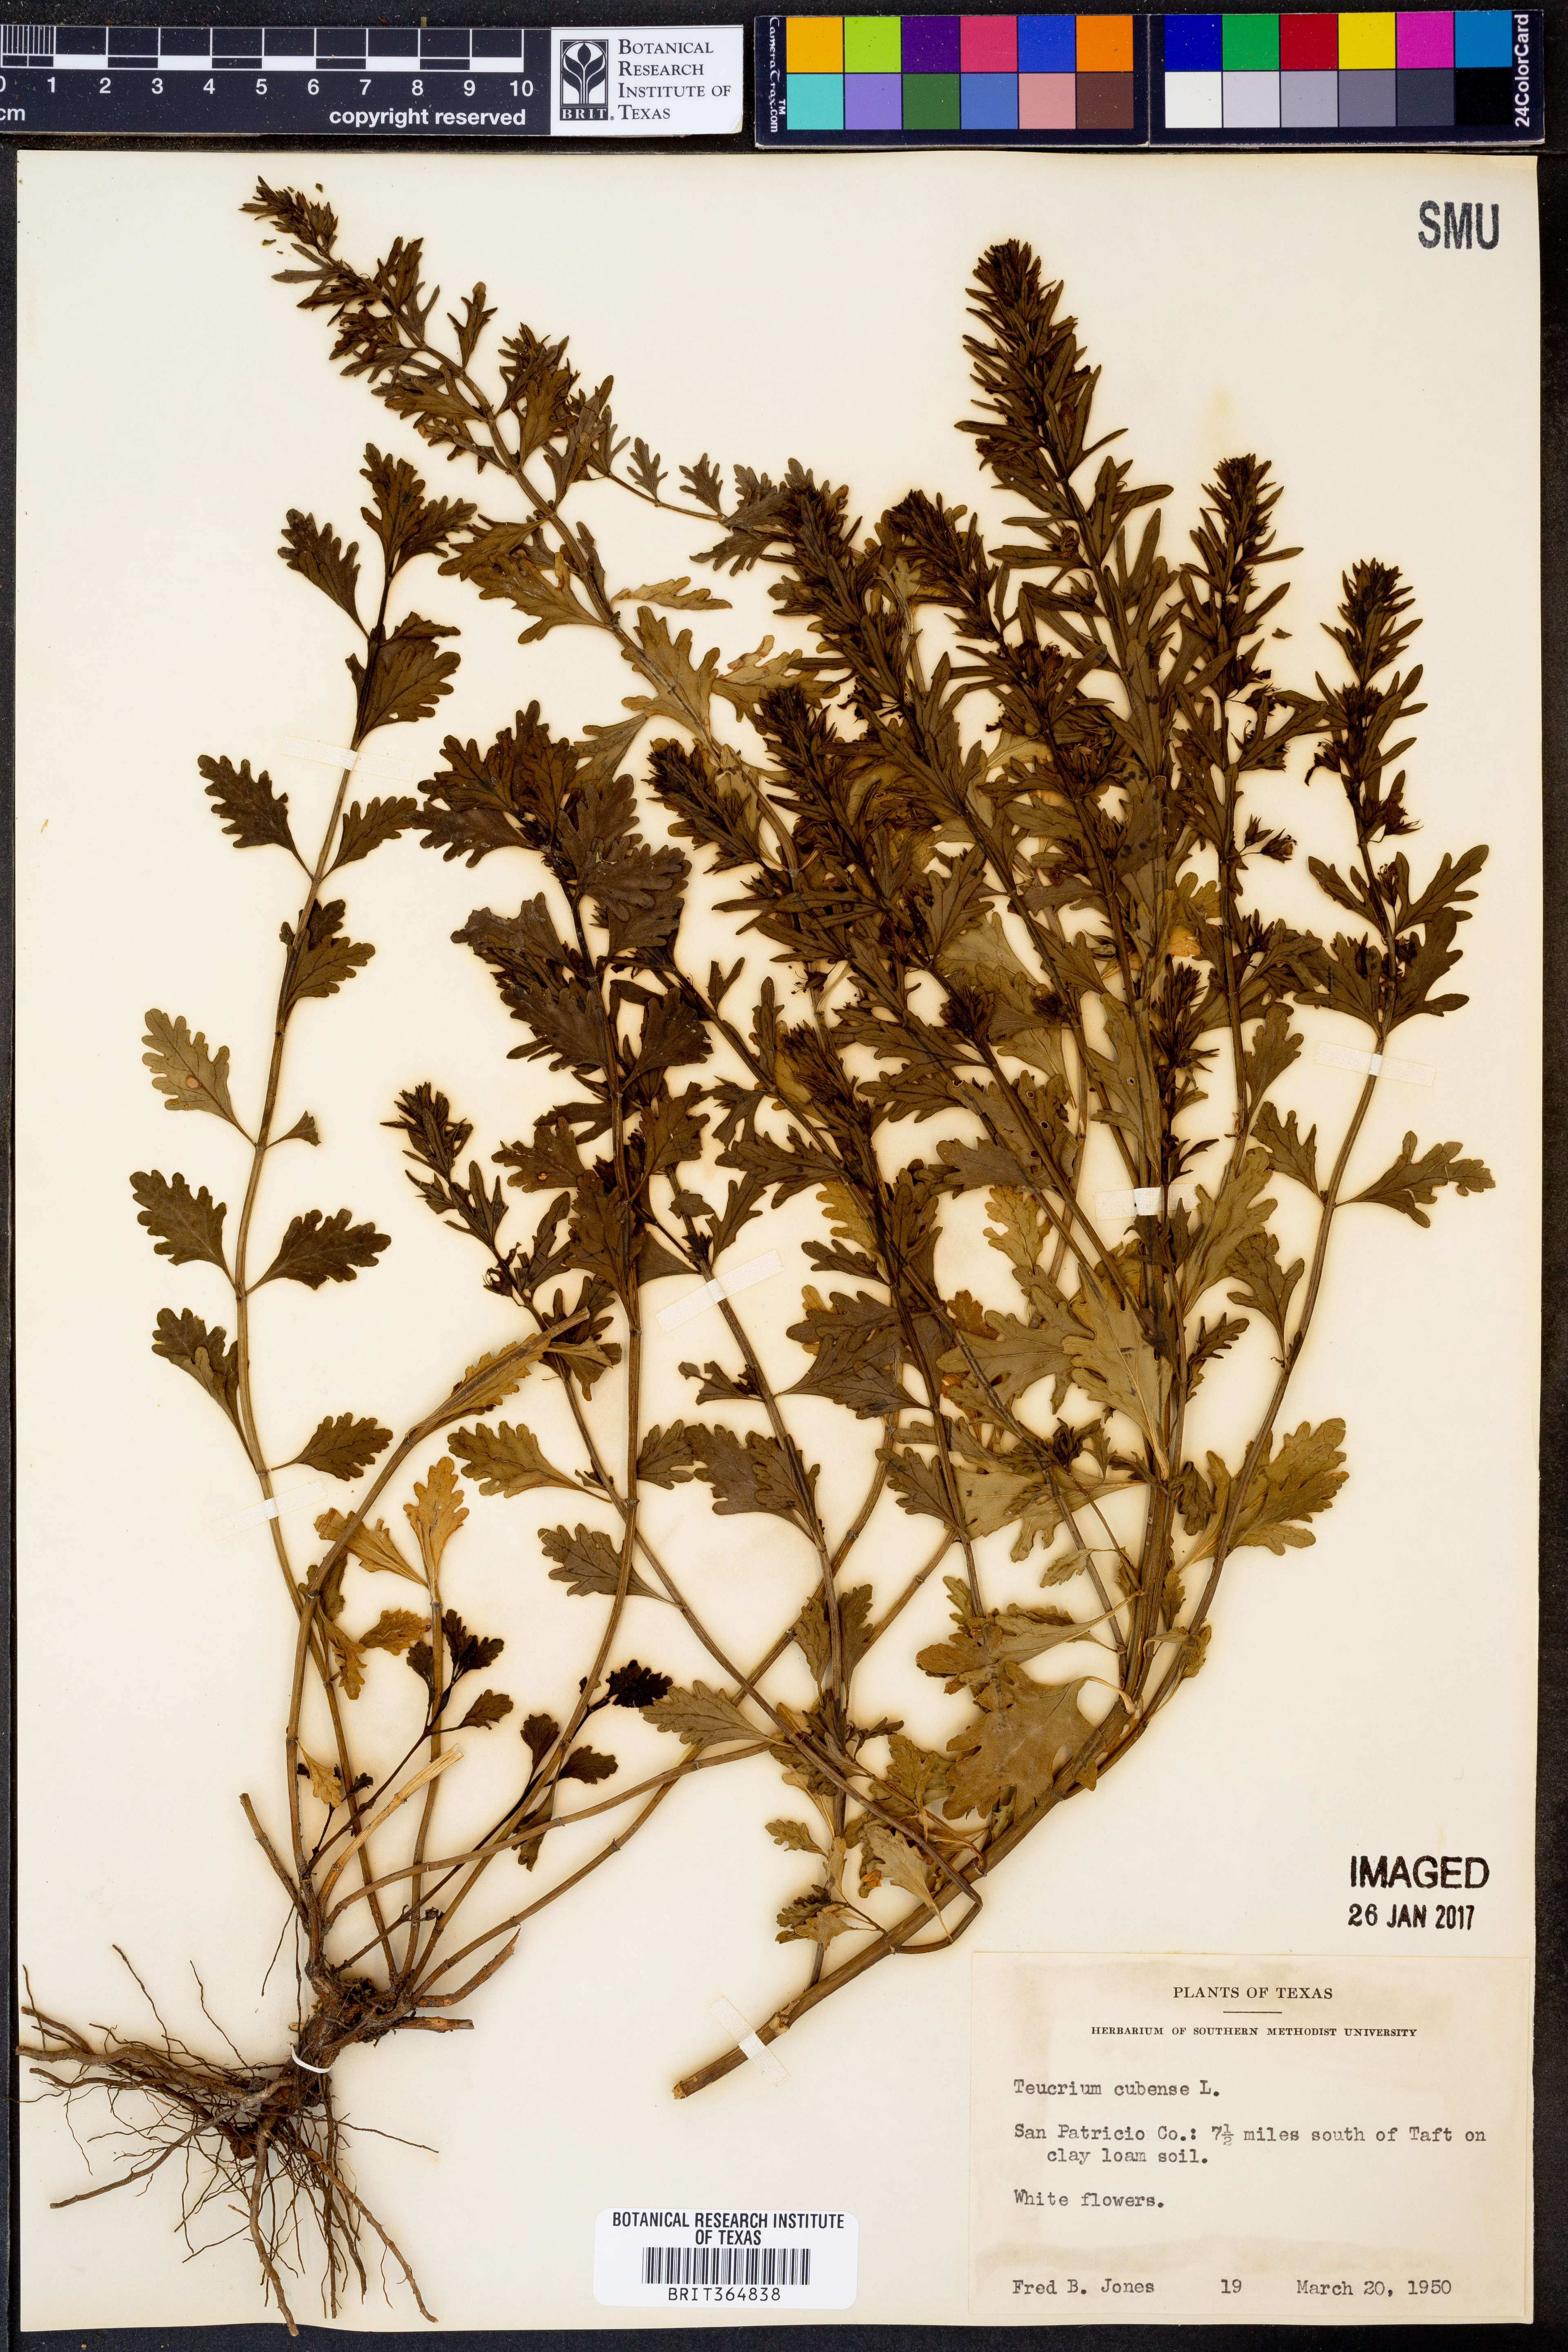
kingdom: Plantae
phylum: Tracheophyta
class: Magnoliopsida
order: Lamiales
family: Lamiaceae
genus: Teucrium
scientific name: Teucrium cubense
